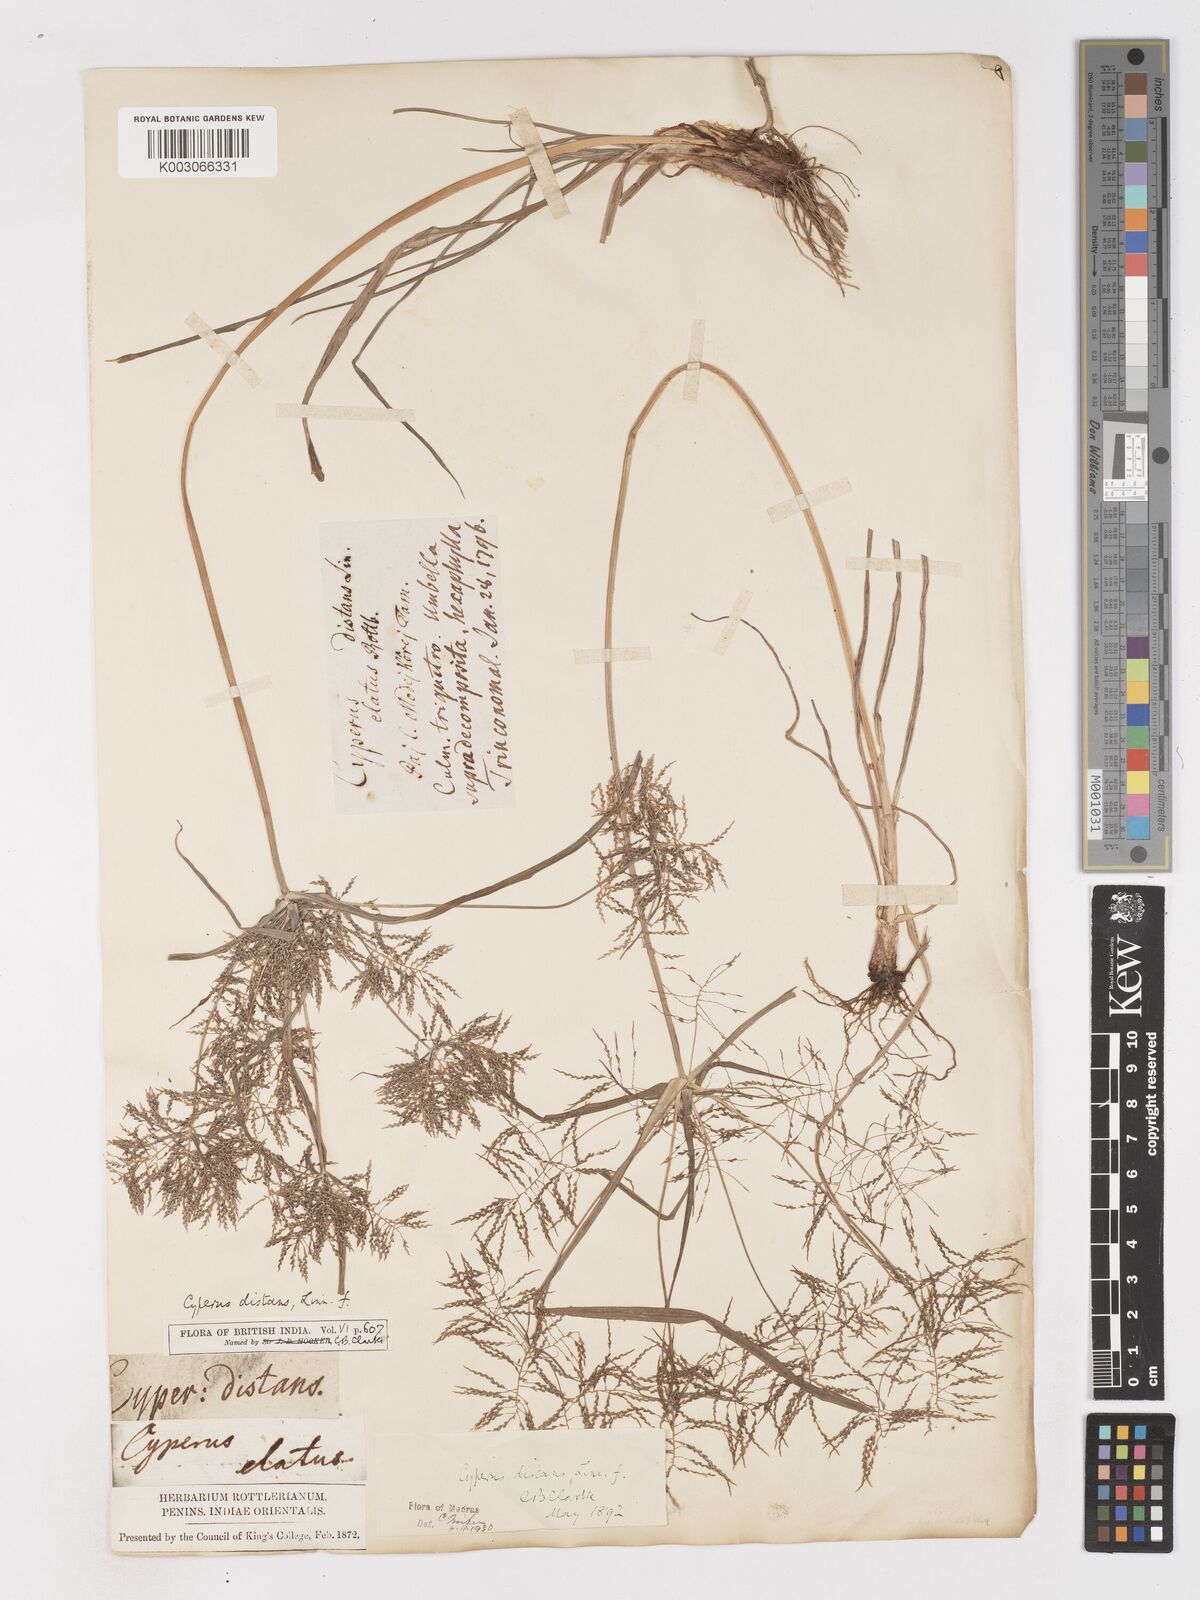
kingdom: Plantae
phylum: Tracheophyta
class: Liliopsida
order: Poales
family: Cyperaceae
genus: Cyperus
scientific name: Cyperus distans
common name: Slender cyperus
